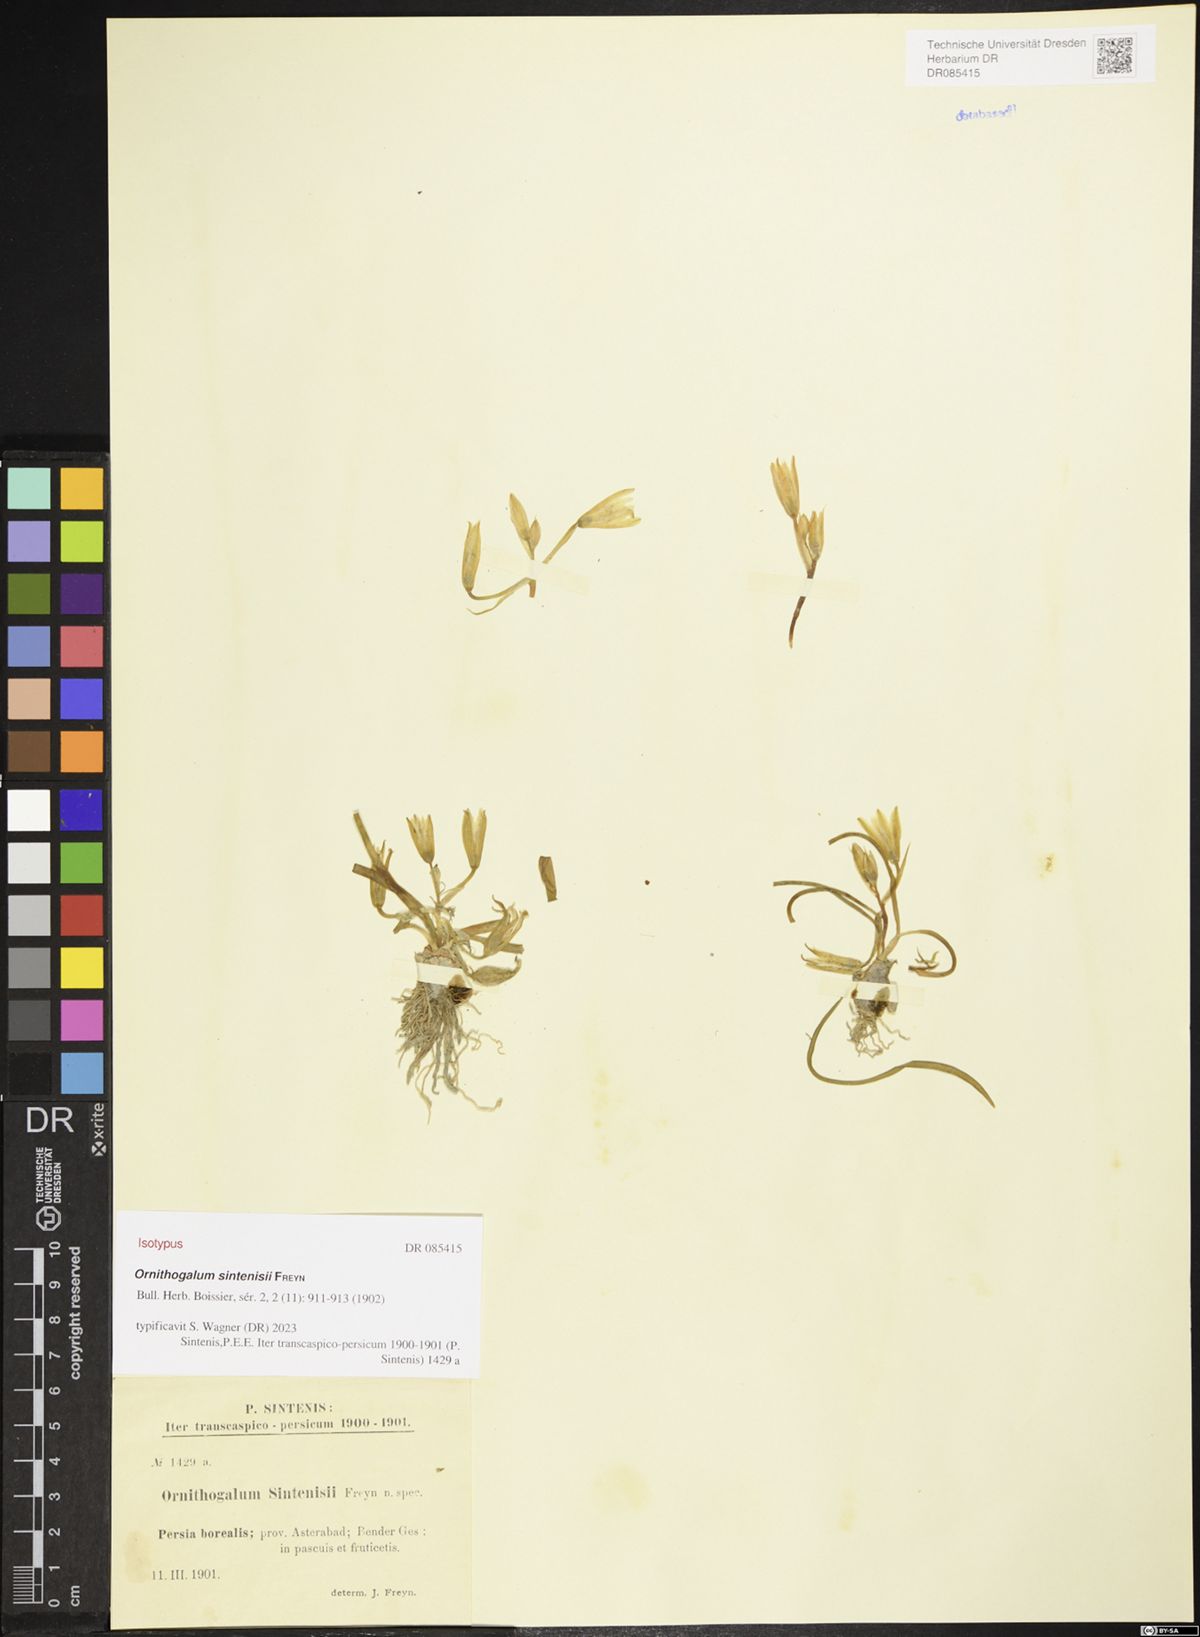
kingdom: Plantae
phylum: Tracheophyta
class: Liliopsida
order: Asparagales
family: Asparagaceae
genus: Ornithogalum
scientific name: Ornithogalum sintenisii
